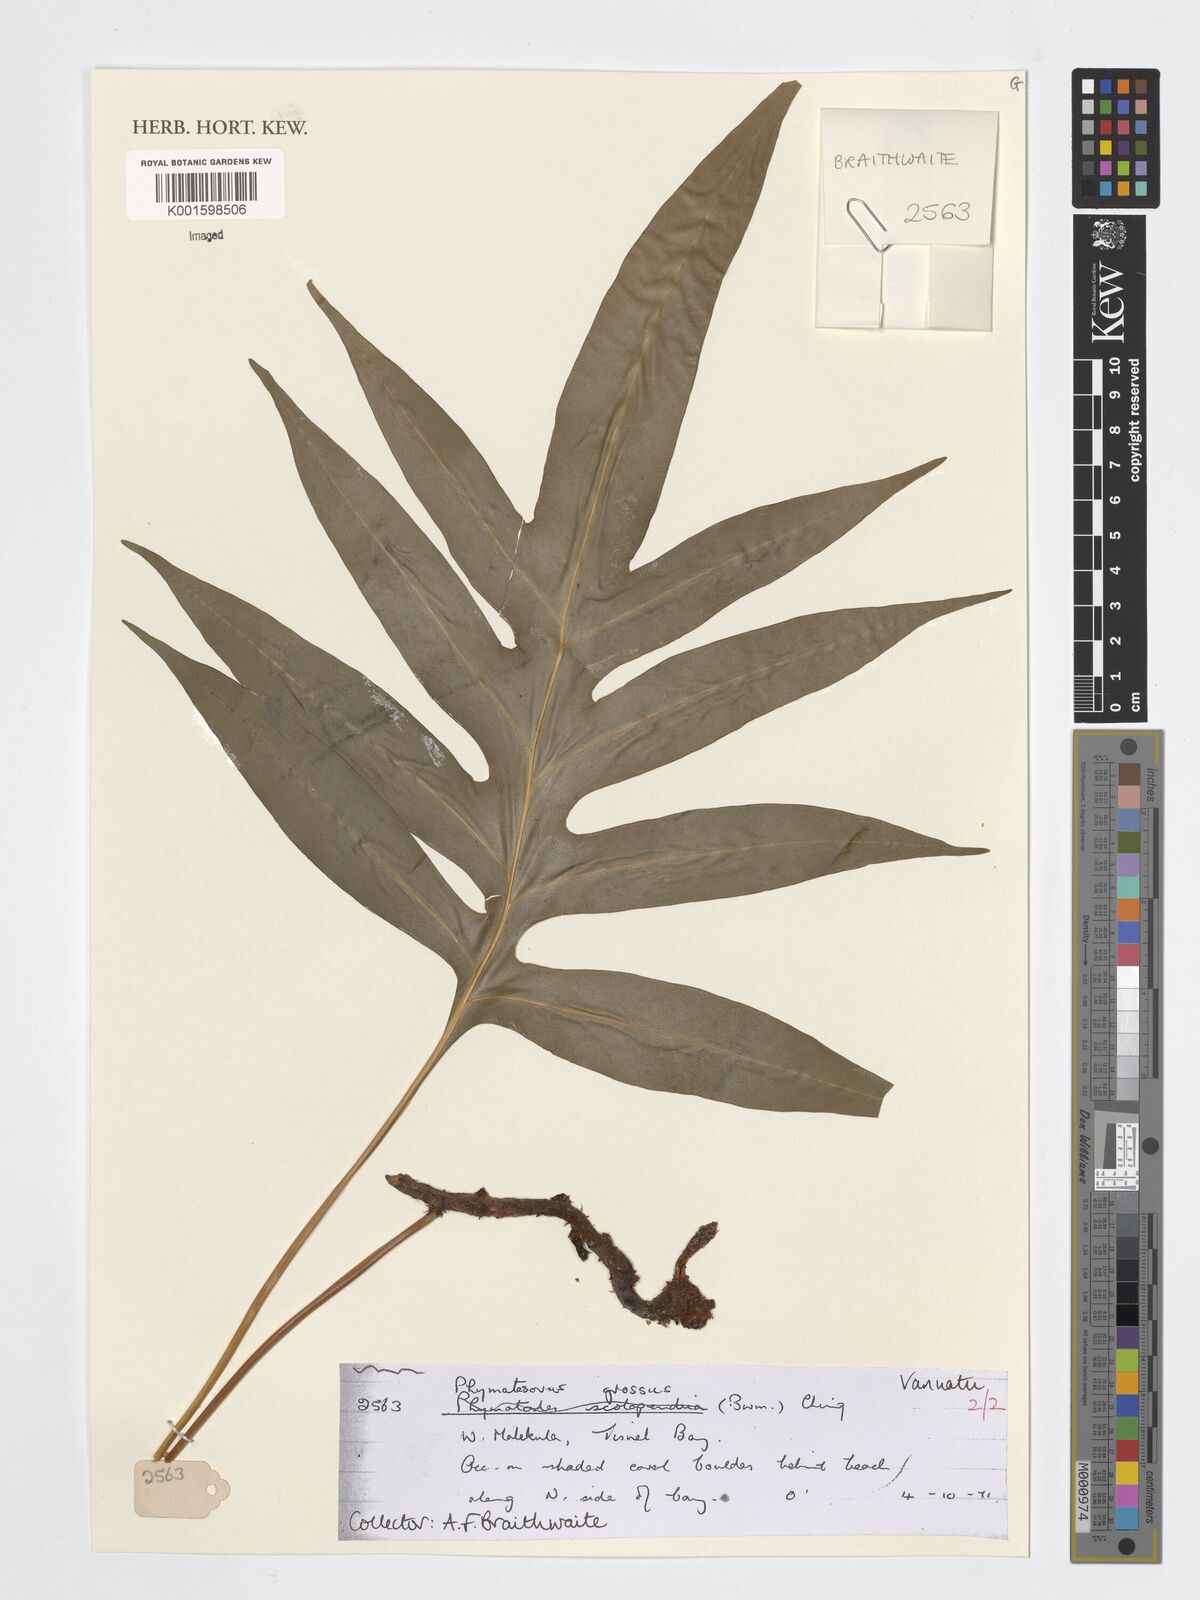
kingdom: Plantae
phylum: Tracheophyta
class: Polypodiopsida
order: Polypodiales
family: Polypodiaceae
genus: Microsorum
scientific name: Microsorum grossum
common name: Musk fern
